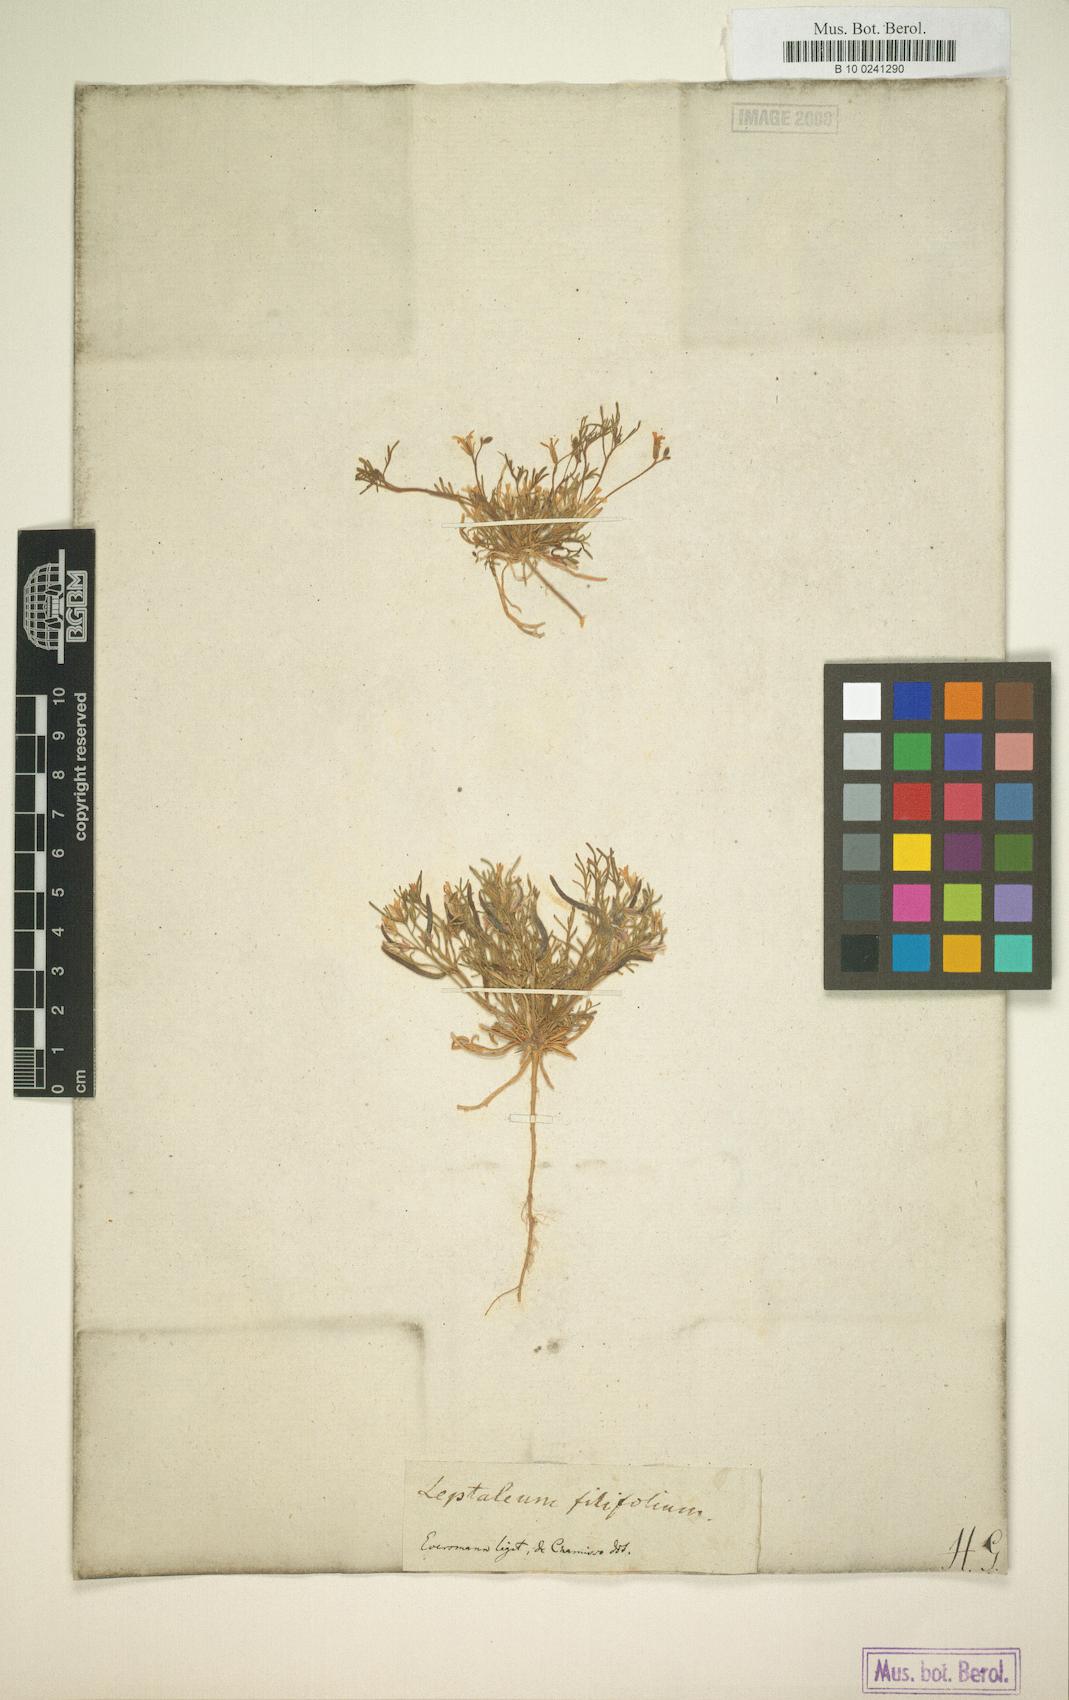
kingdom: Plantae
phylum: Tracheophyta
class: Magnoliopsida
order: Brassicales
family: Brassicaceae
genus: Leptaleum
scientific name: Leptaleum filifolium
